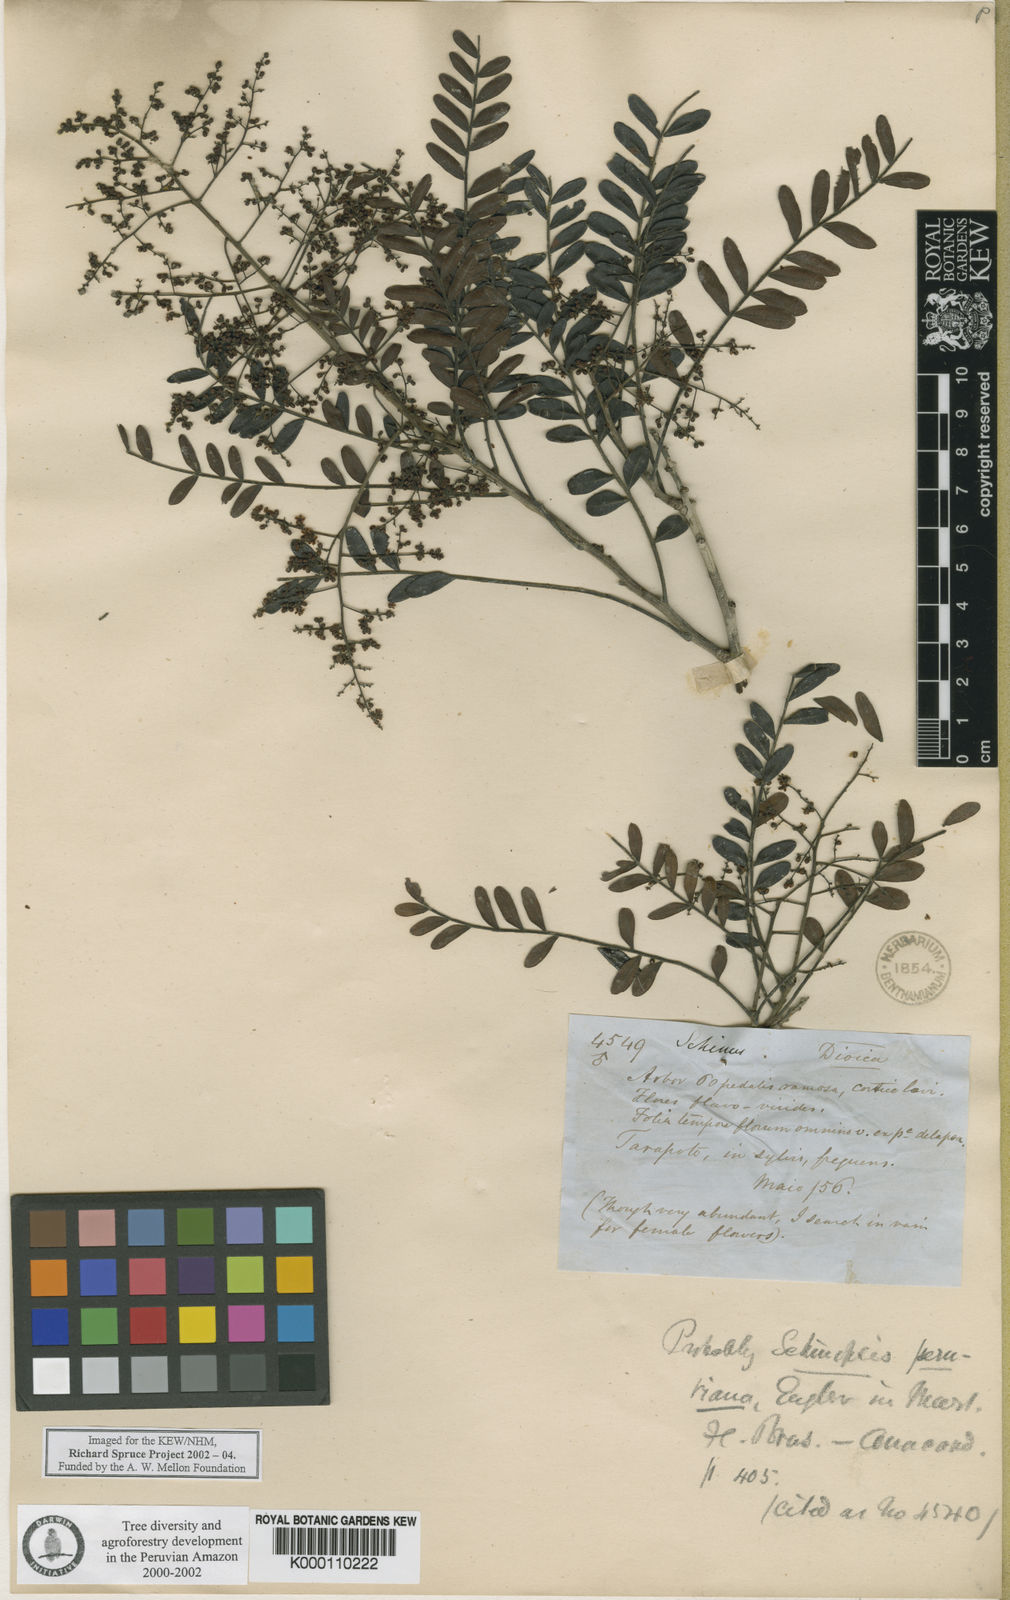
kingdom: Plantae
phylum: Tracheophyta
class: Magnoliopsida
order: Sapindales
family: Anacardiaceae
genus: Schinopsis
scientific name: Schinopsis peruviana
